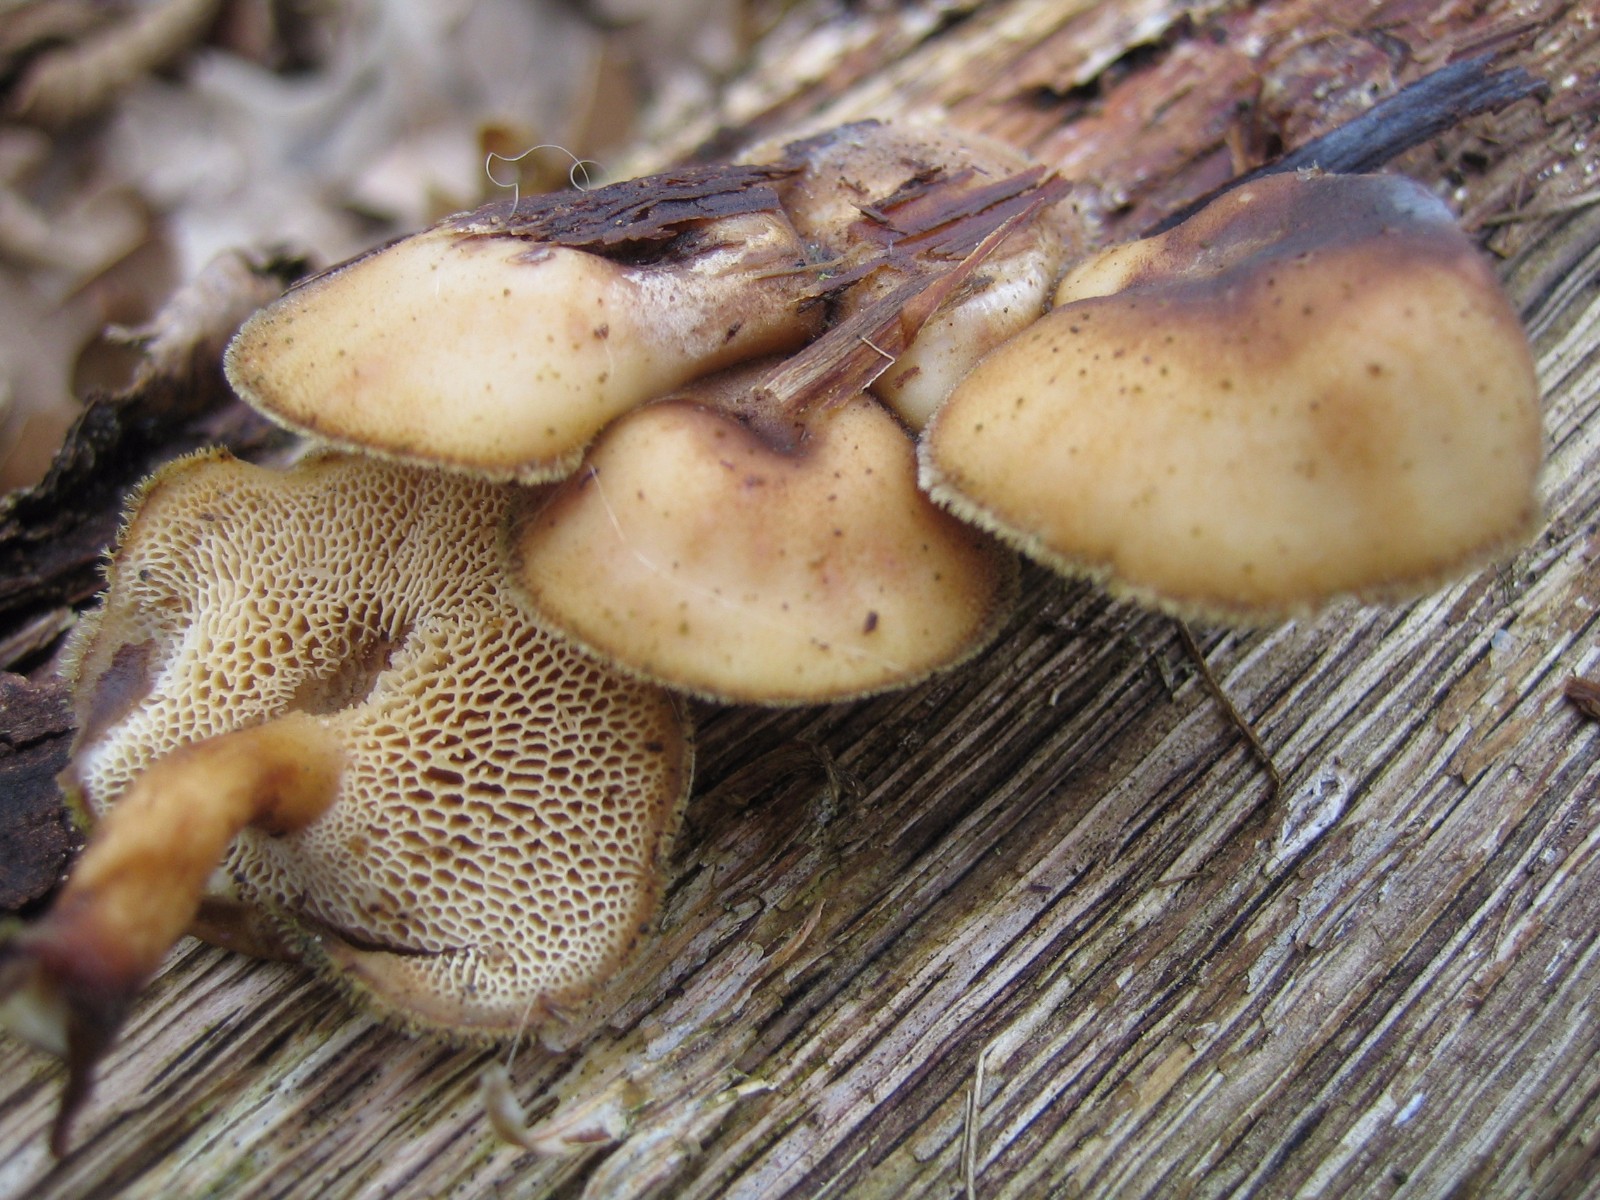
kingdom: Fungi
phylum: Basidiomycota
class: Agaricomycetes
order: Polyporales
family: Polyporaceae
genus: Lentinus
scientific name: Lentinus brumalis
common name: vinter-stilkporesvamp
